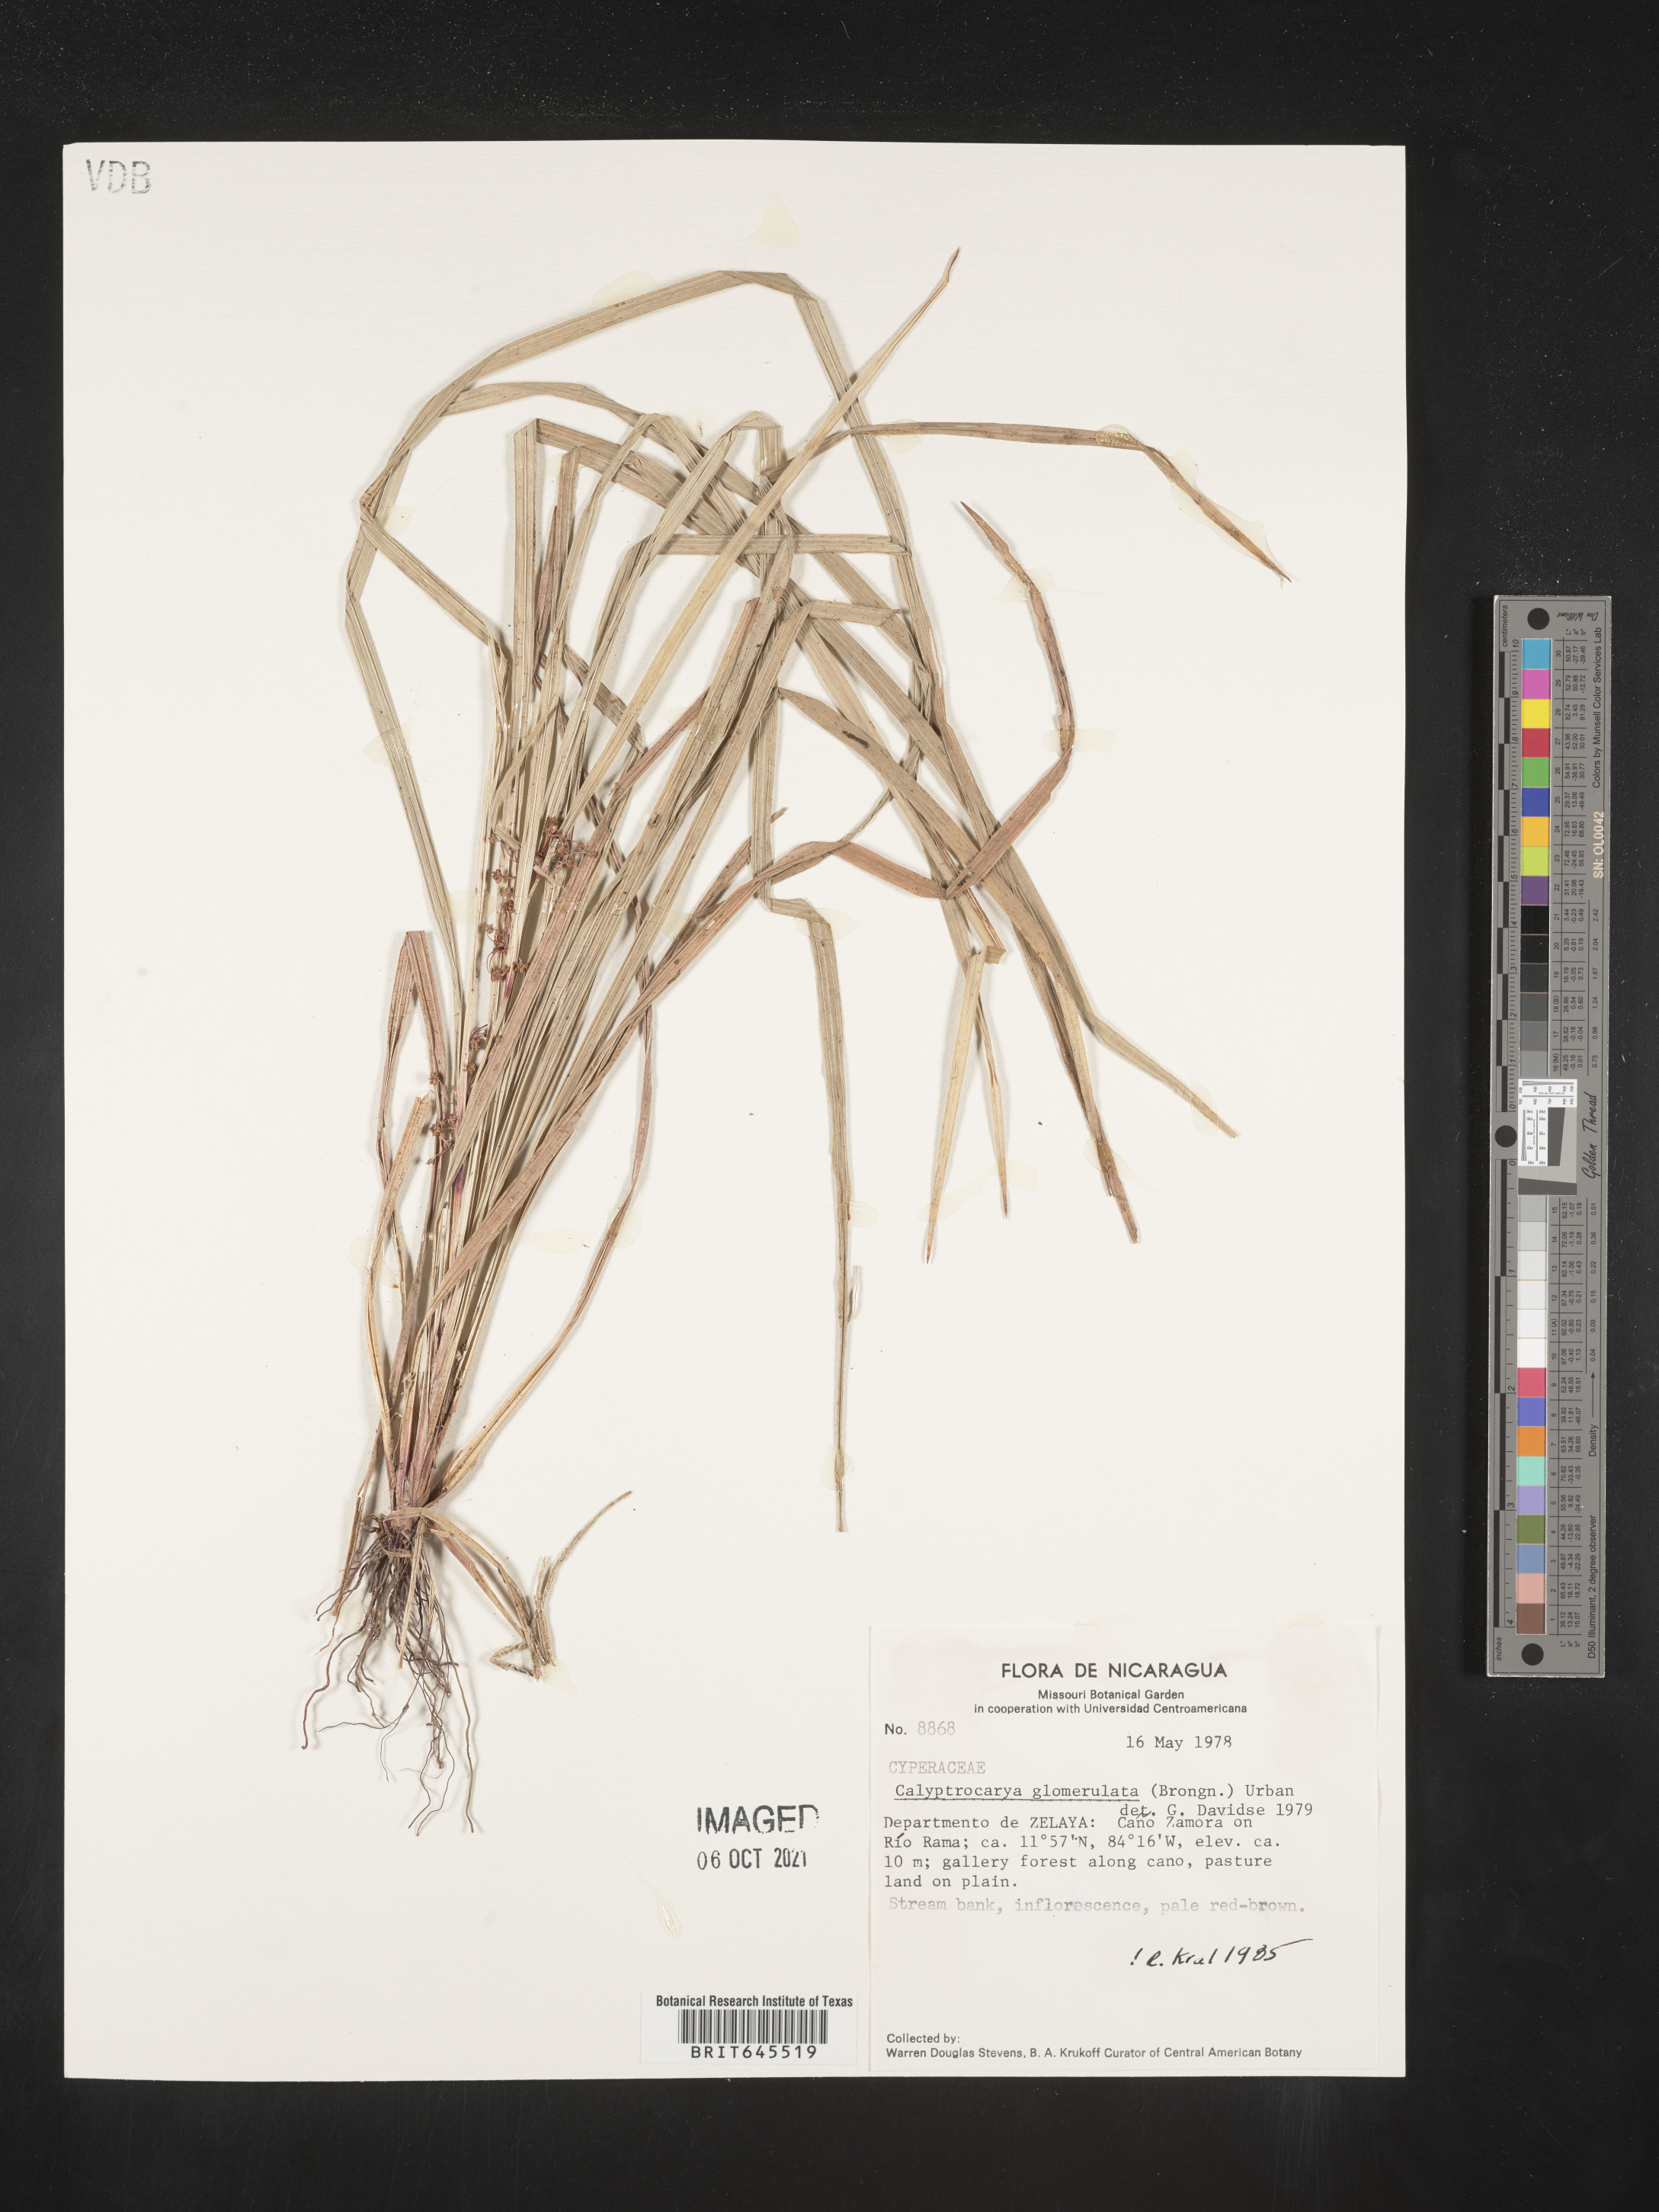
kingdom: Plantae
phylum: Tracheophyta
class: Liliopsida
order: Poales
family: Cyperaceae
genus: Calyptrocarya
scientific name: Calyptrocarya glomerulata
